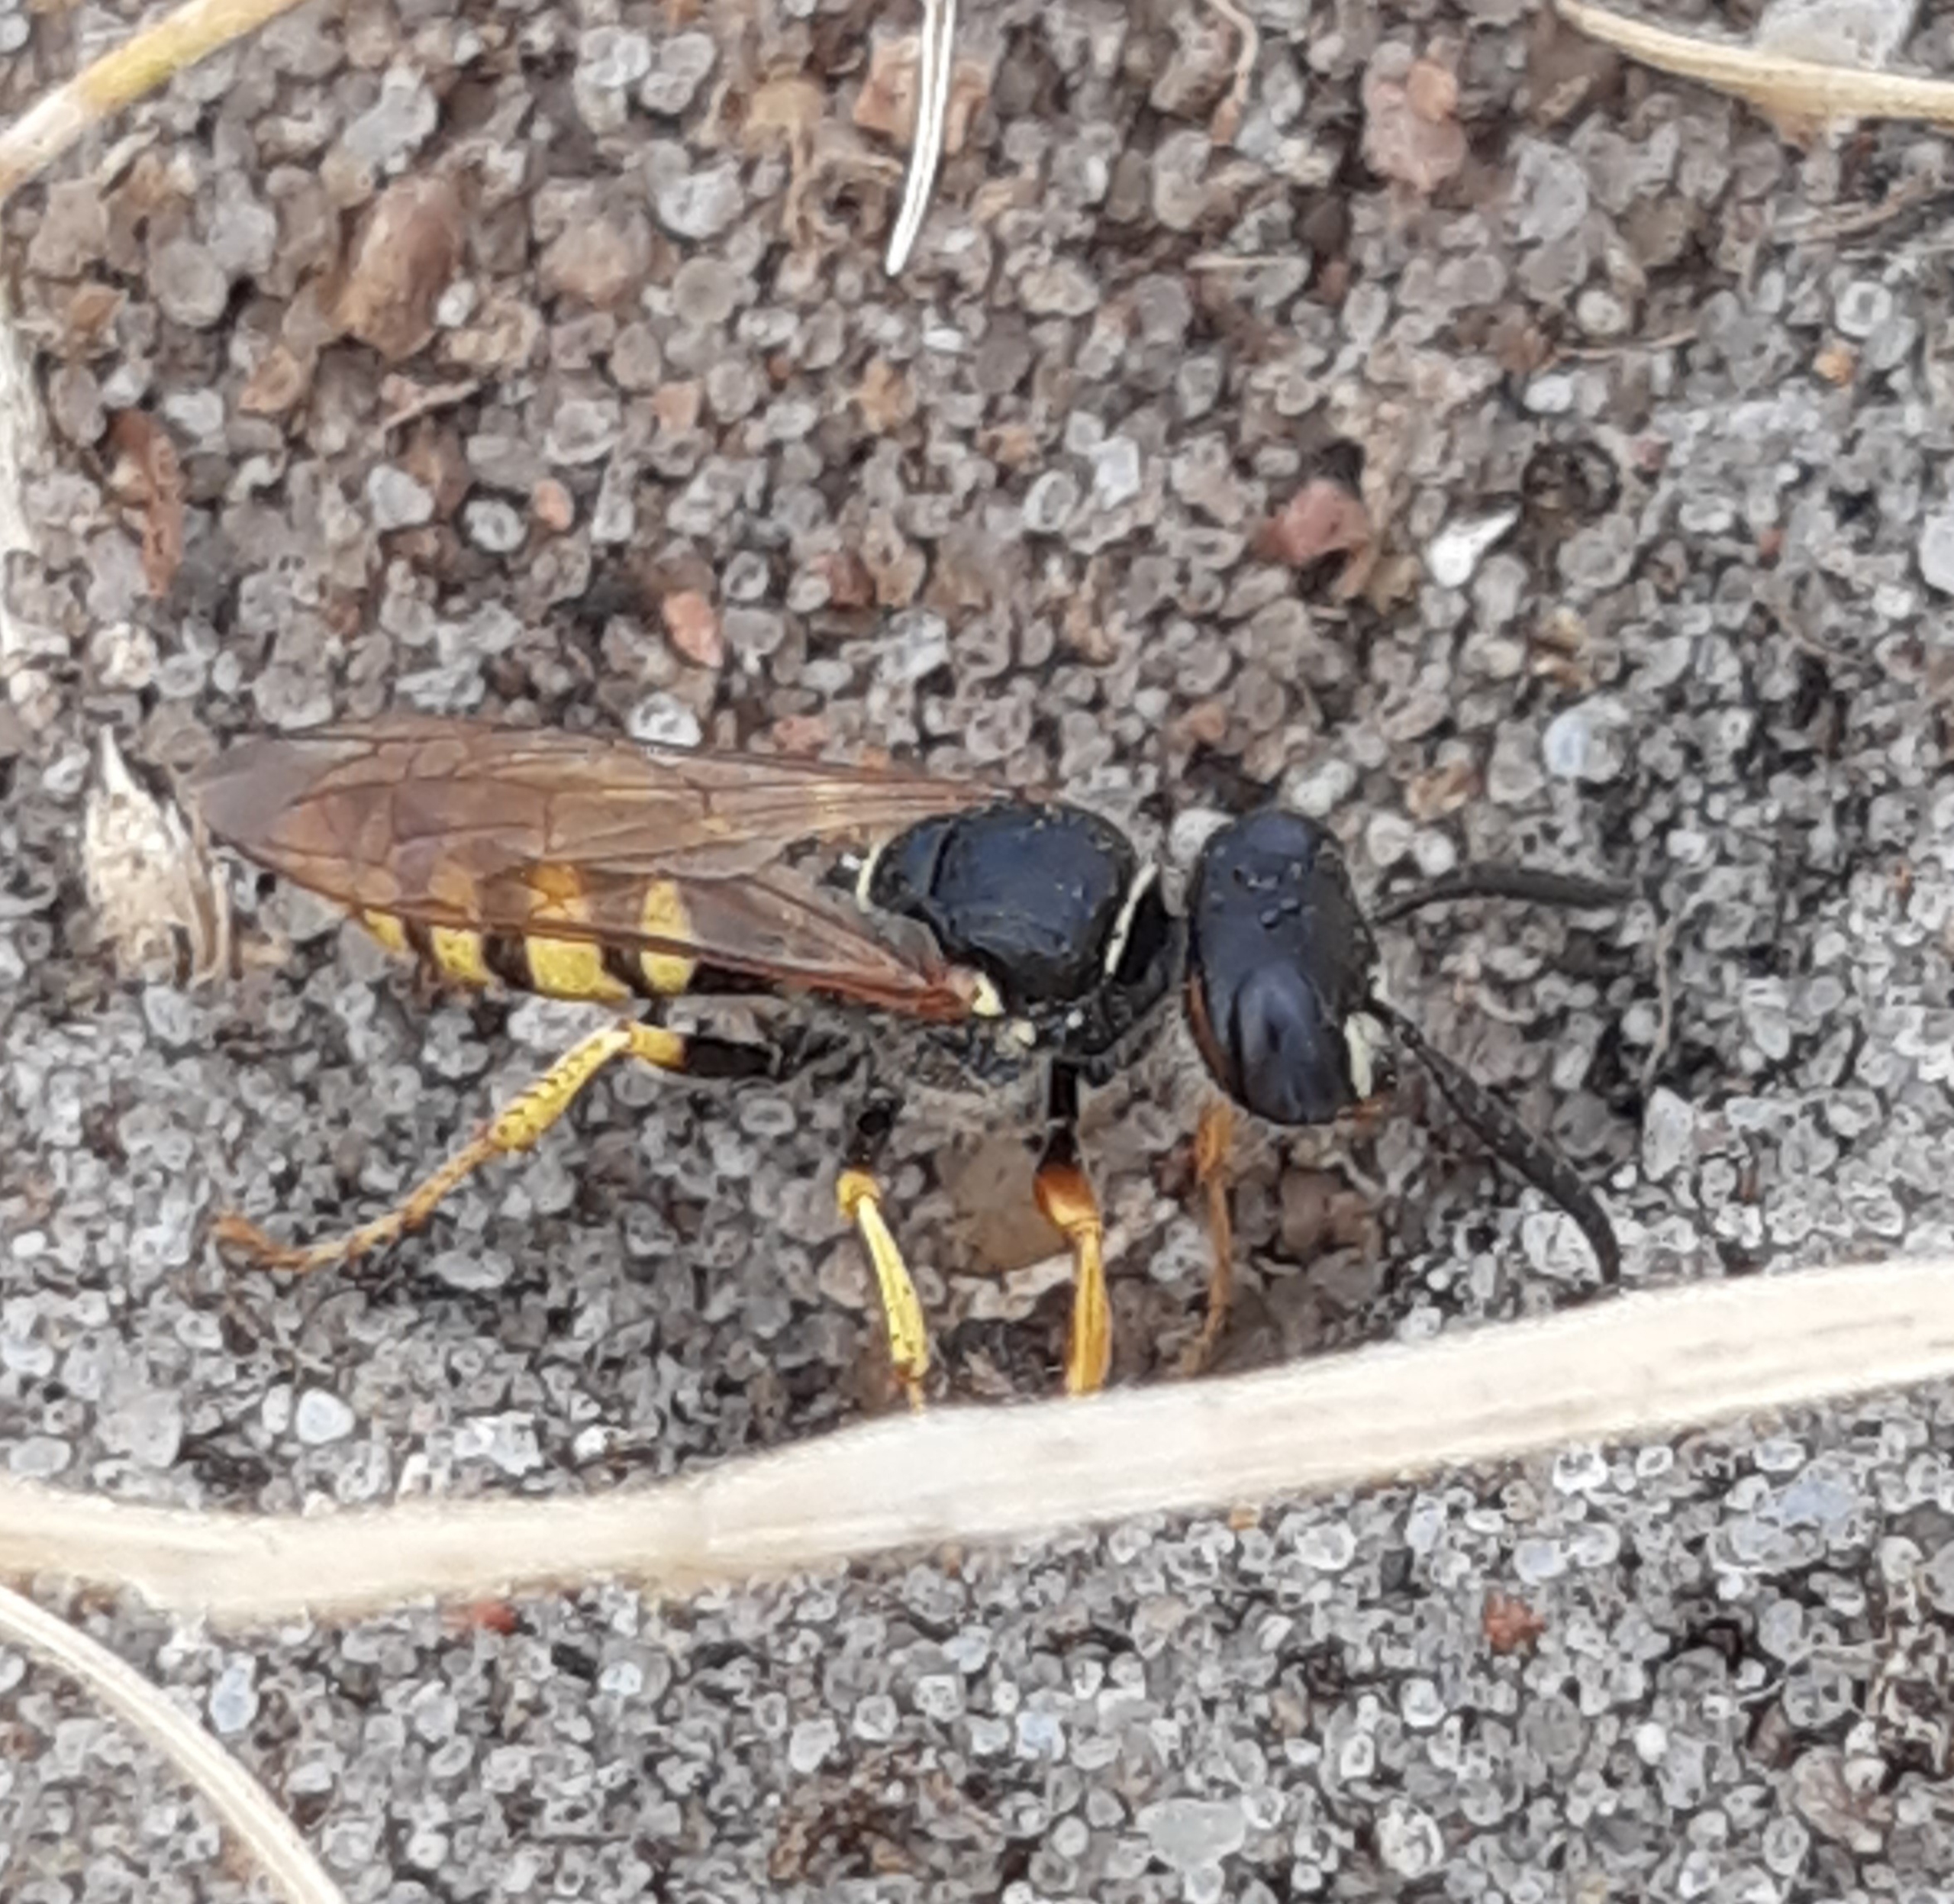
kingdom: Animalia
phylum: Arthropoda
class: Insecta
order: Hymenoptera
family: Crabronidae
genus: Philanthus
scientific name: Philanthus triangulum
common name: Biulv
